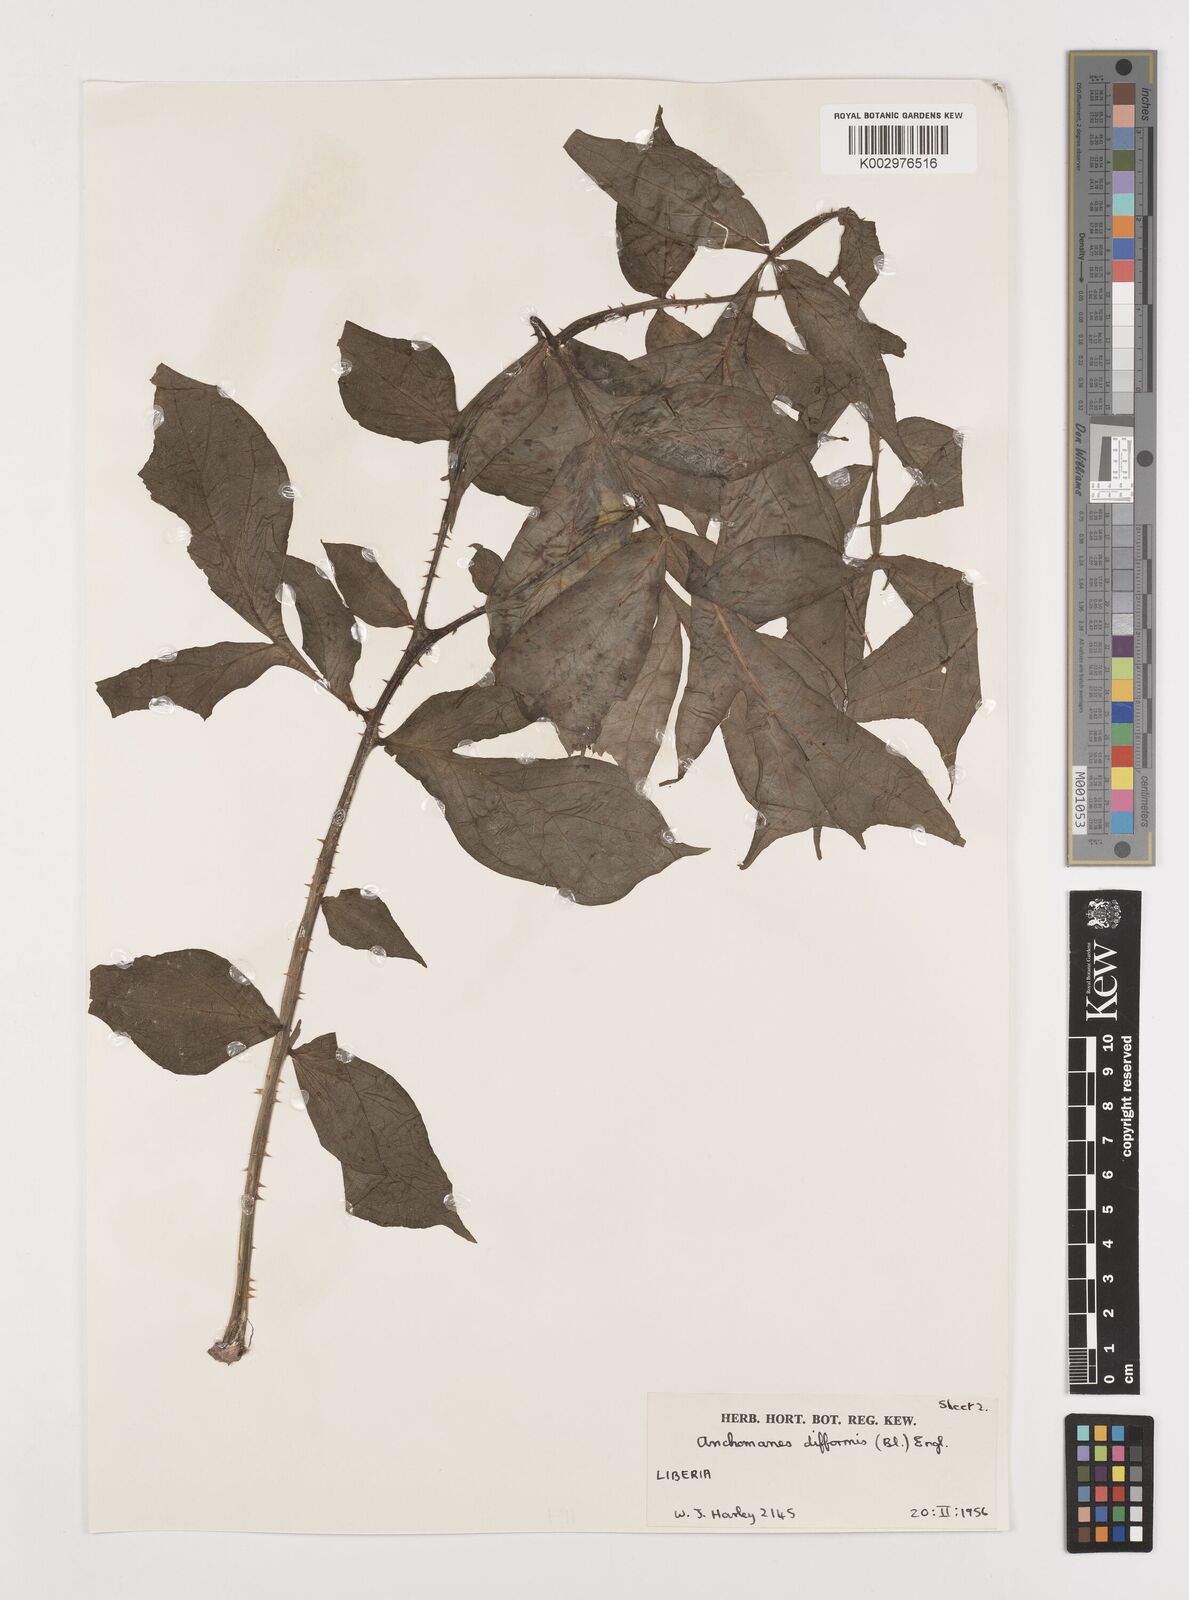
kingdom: Plantae
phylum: Tracheophyta
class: Liliopsida
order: Alismatales
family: Araceae
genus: Anchomanes
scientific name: Anchomanes difformis
